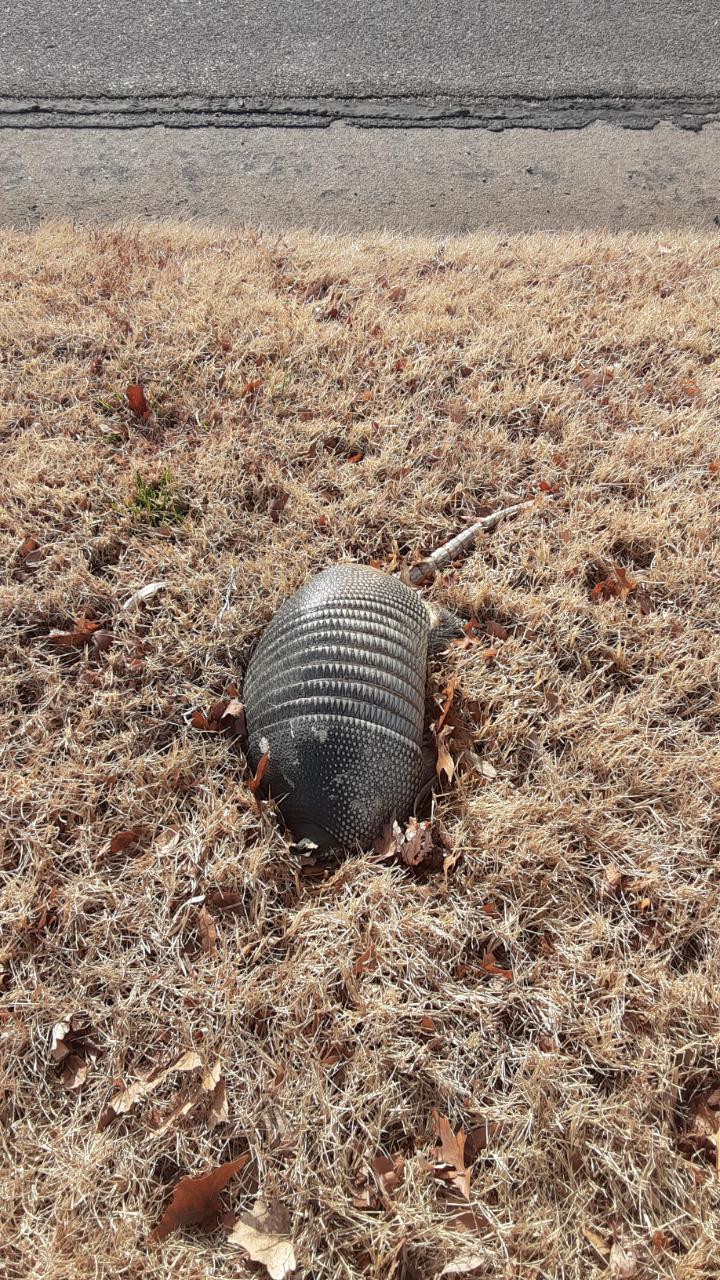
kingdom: Animalia
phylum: Chordata
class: Mammalia
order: Cingulata
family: Dasypodidae
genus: Dasypus
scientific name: Dasypus novemcinctus
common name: Nine-banded armadillo
